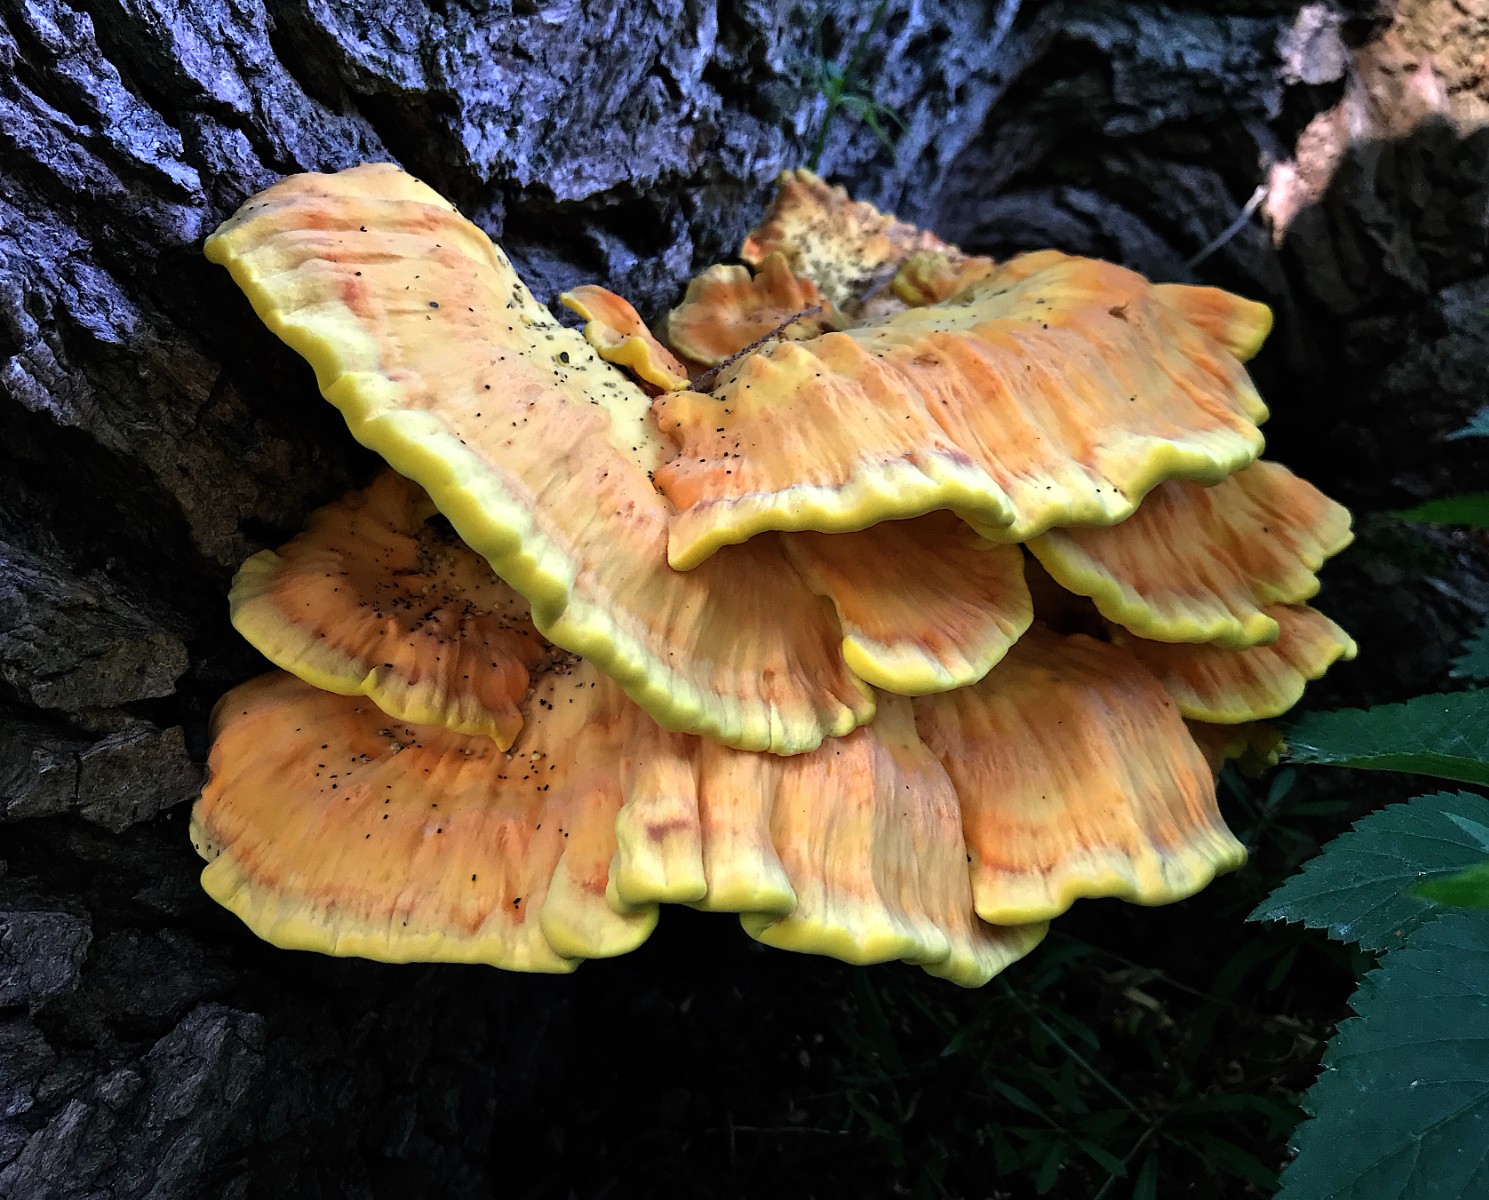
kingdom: Fungi
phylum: Basidiomycota
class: Agaricomycetes
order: Polyporales
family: Laetiporaceae
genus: Laetiporus
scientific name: Laetiporus sulphureus
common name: svovlporesvamp
